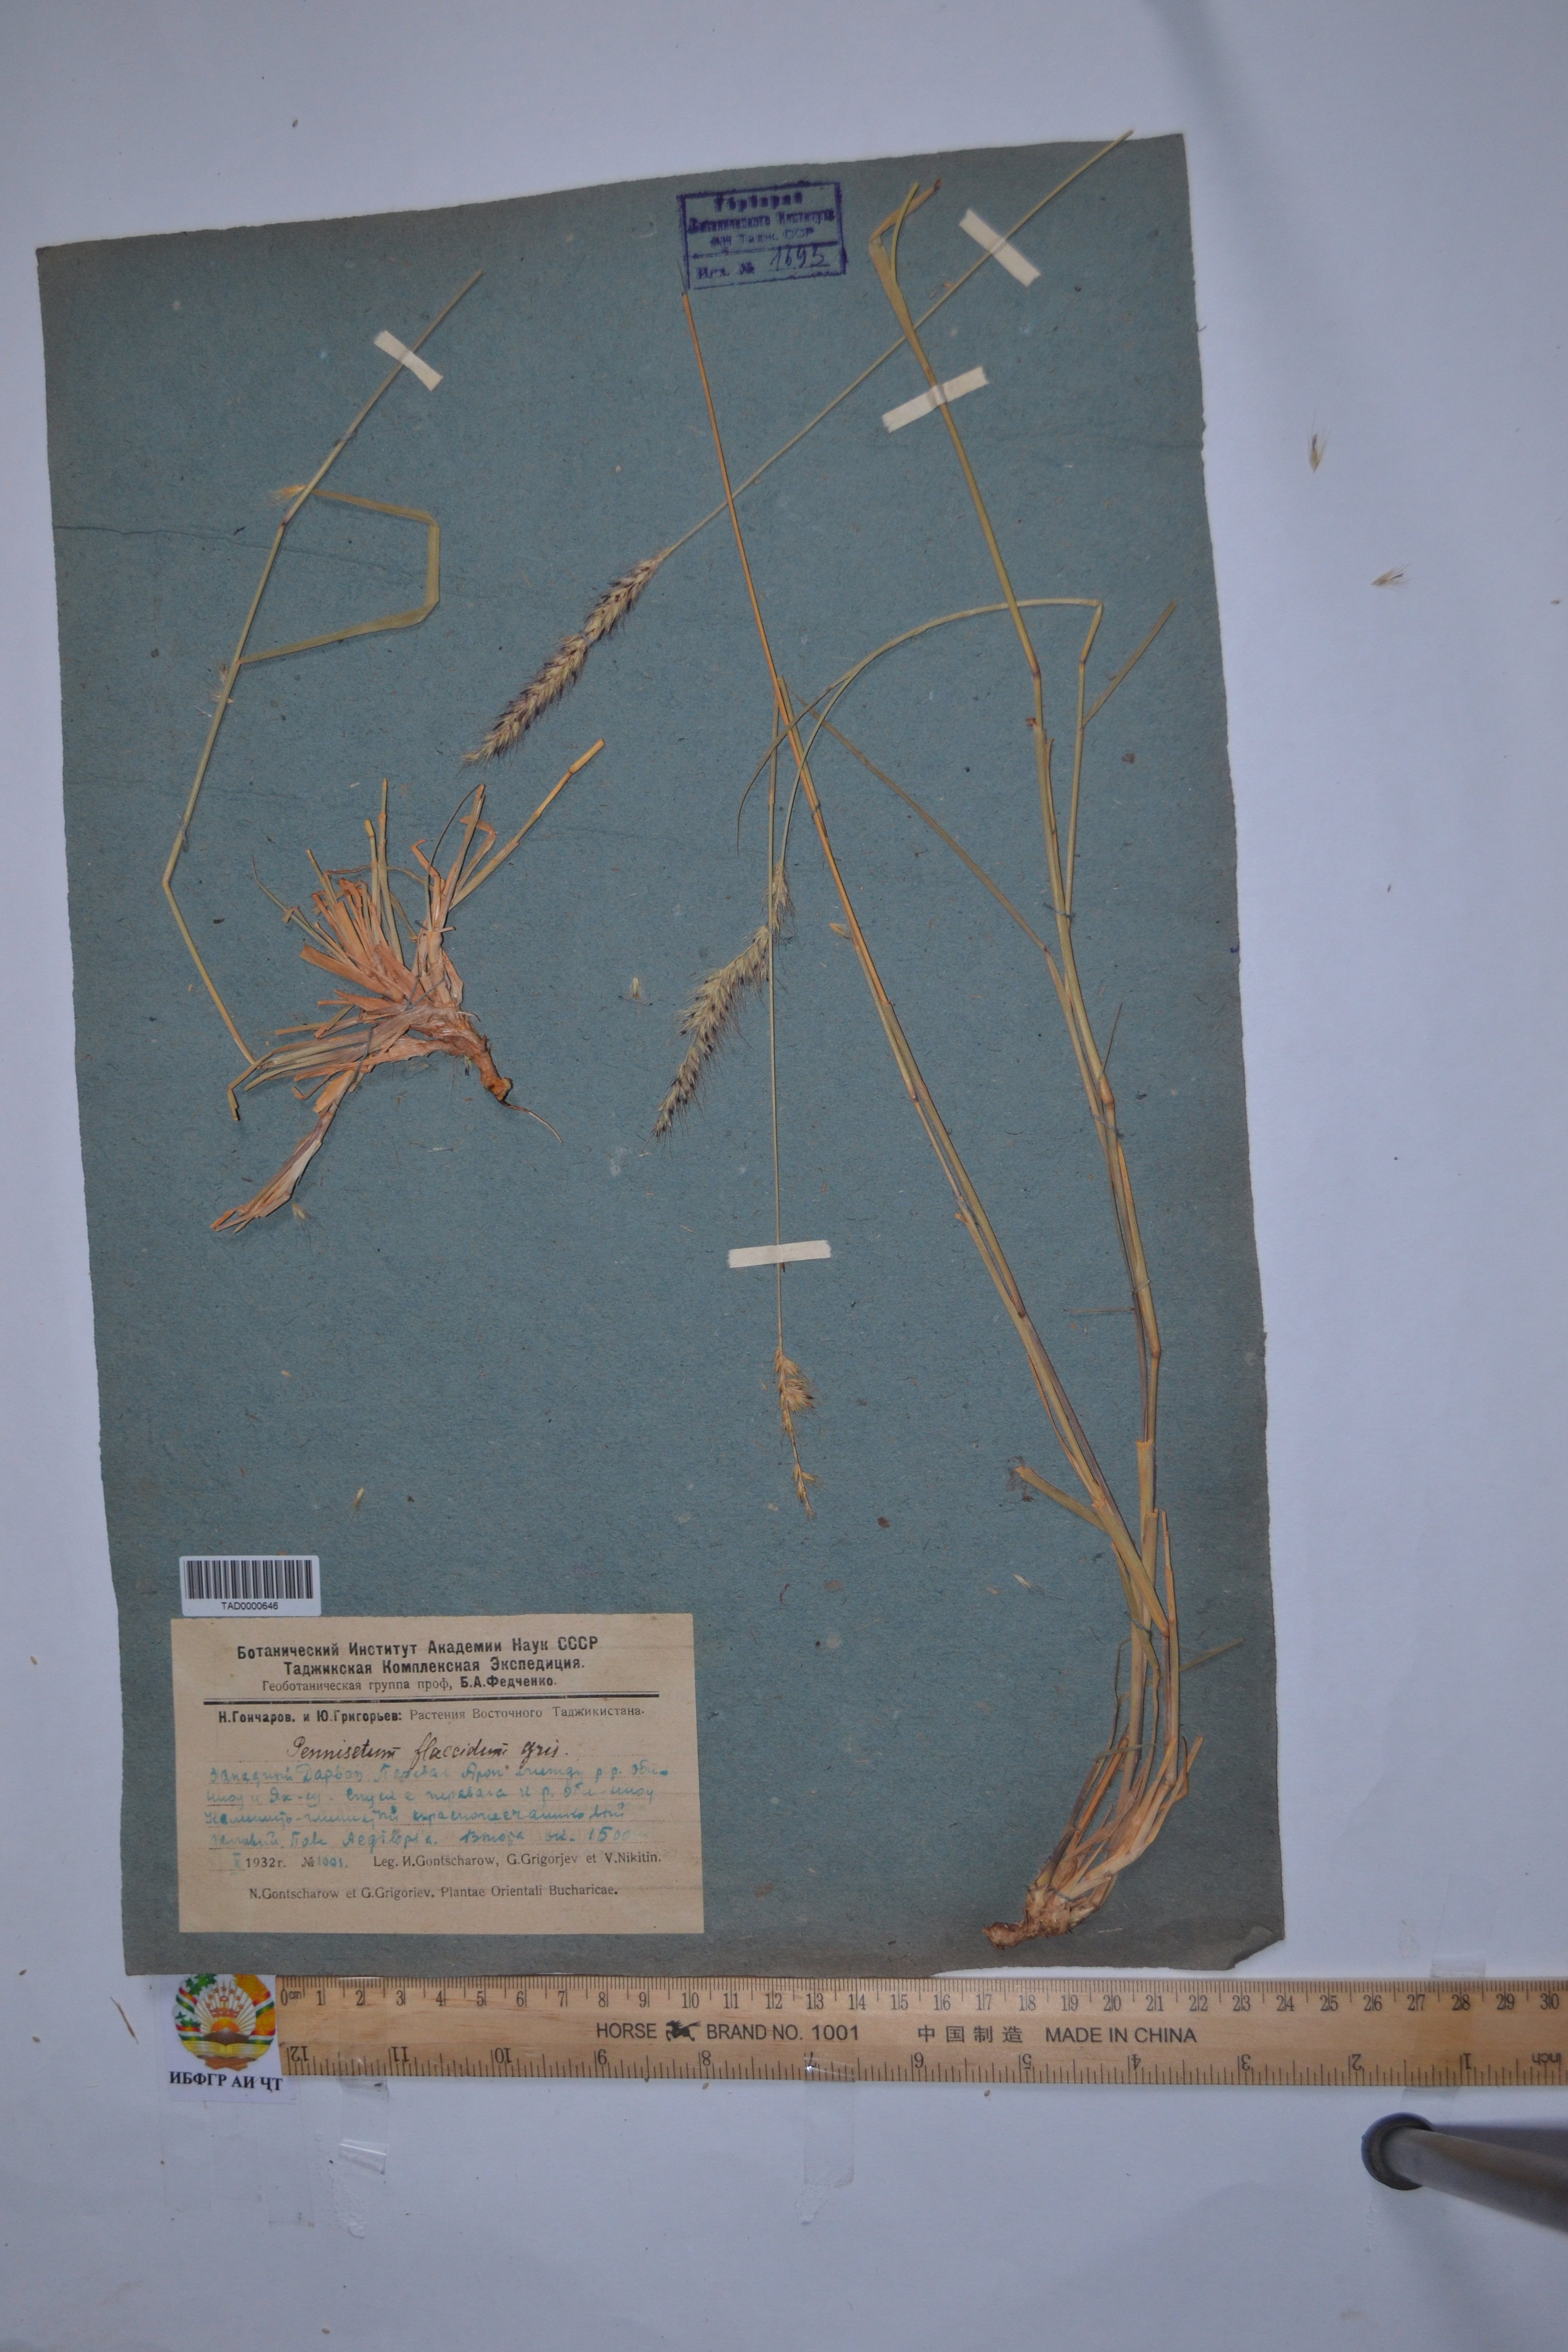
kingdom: Plantae
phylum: Tracheophyta
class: Liliopsida
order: Poales
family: Poaceae
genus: Cenchrus
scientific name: Cenchrus flaccidus
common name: Flaccid grass
